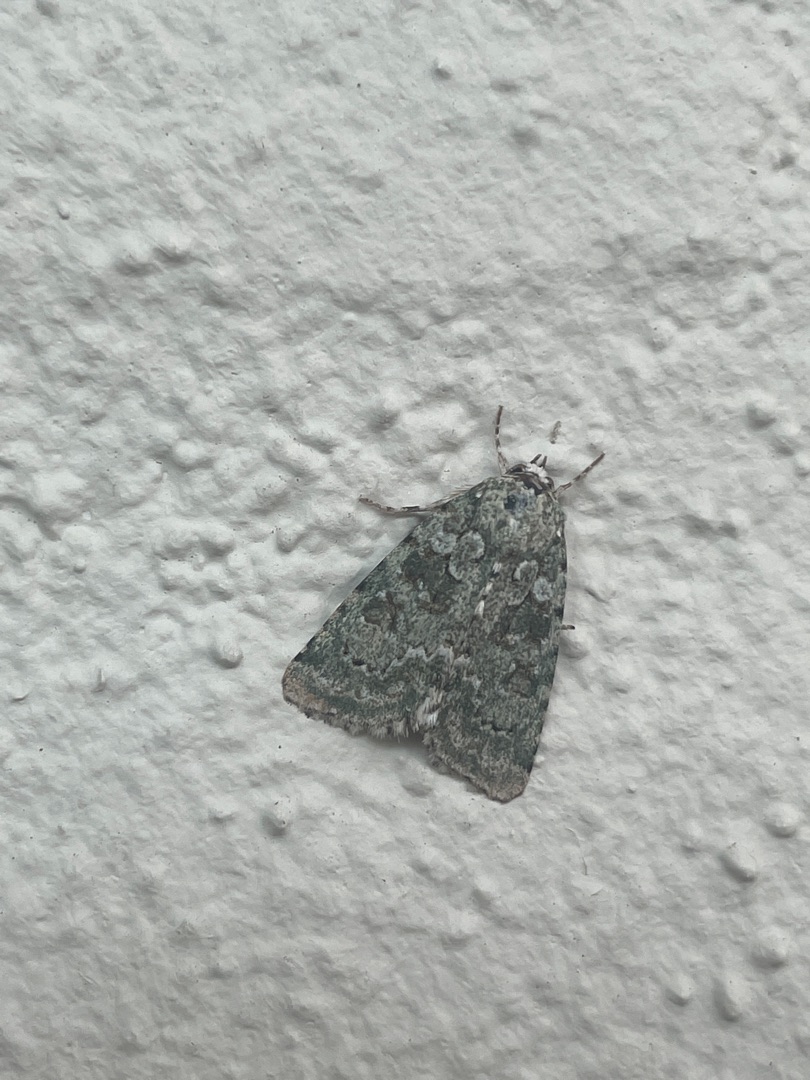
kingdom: Animalia
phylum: Arthropoda
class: Insecta
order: Lepidoptera
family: Noctuidae
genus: Nyctobrya
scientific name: Nyctobrya muralis
